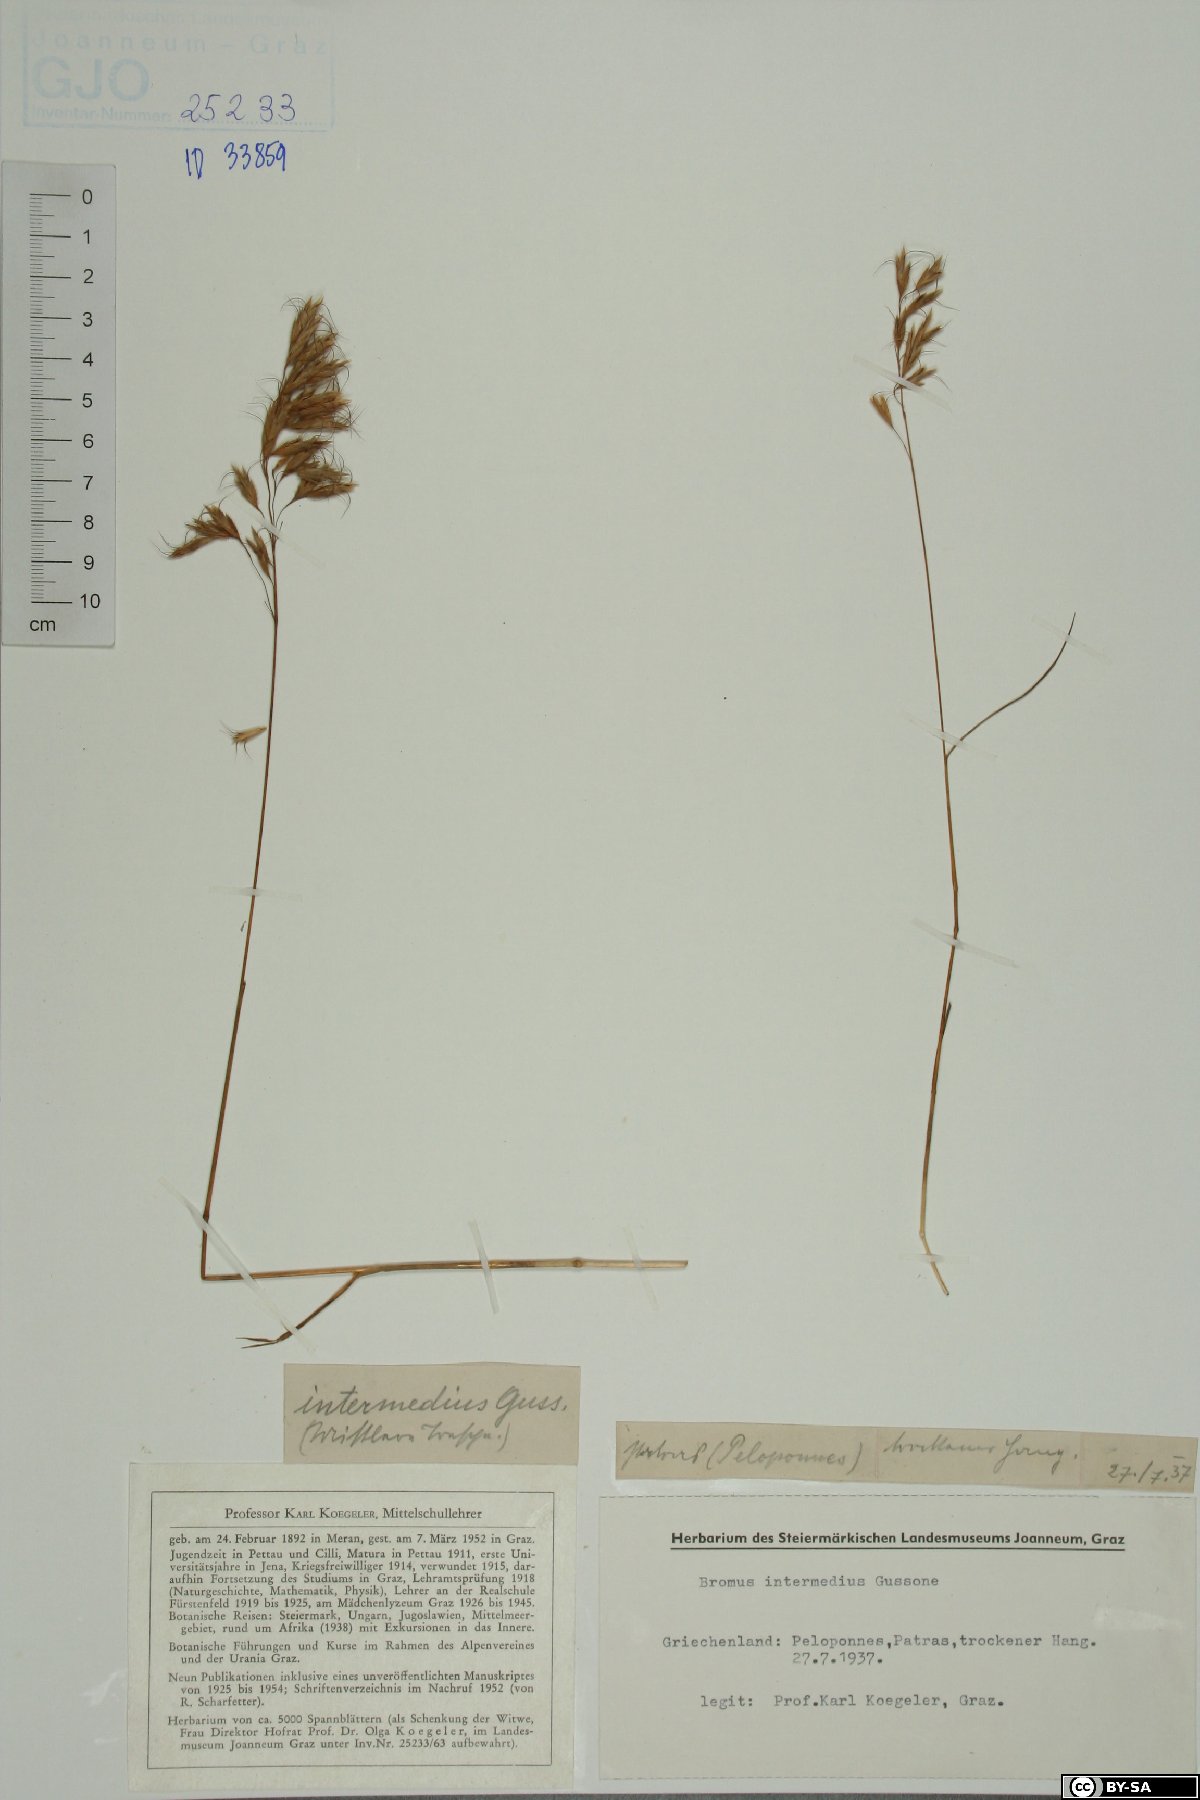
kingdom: Plantae
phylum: Tracheophyta
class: Liliopsida
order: Poales
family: Poaceae
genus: Bromus
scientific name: Bromus intermedius
